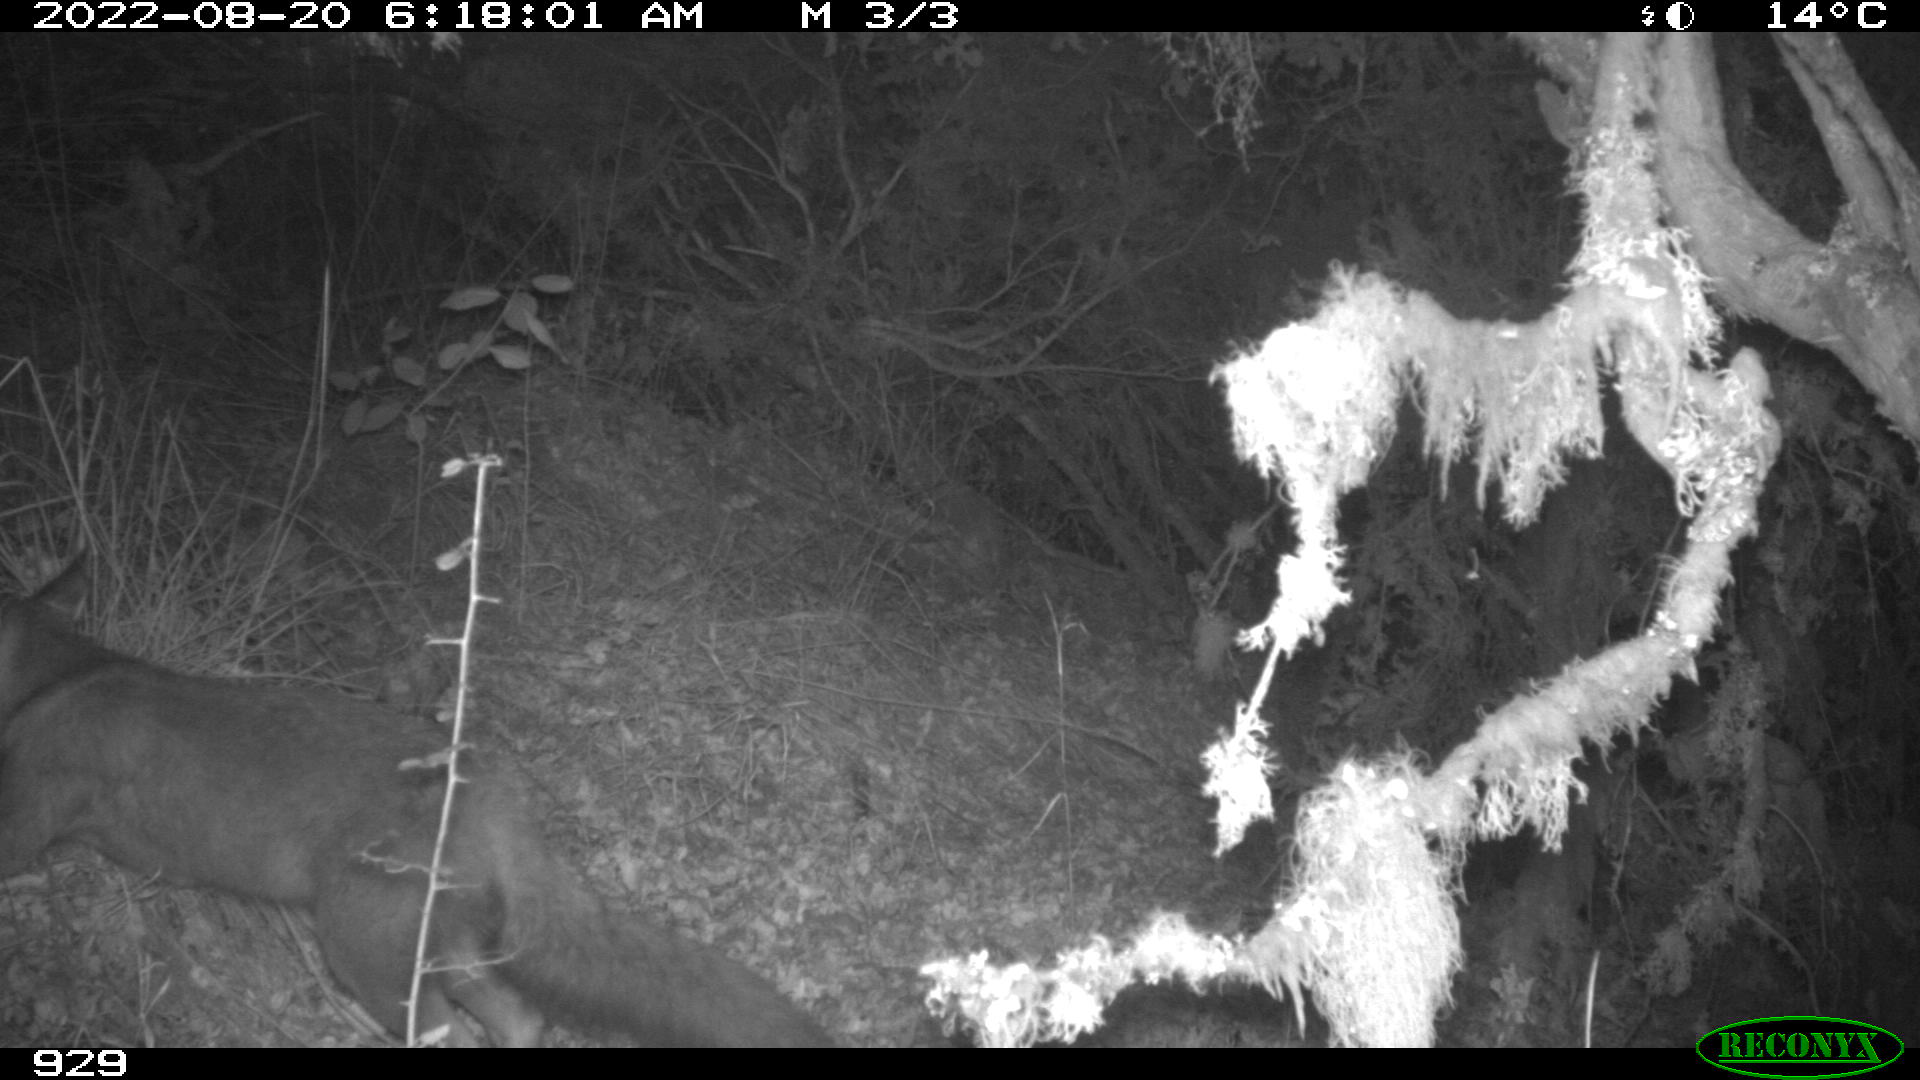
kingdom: Animalia
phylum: Chordata
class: Mammalia
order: Carnivora
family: Canidae
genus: Vulpes
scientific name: Vulpes vulpes
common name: Red fox
